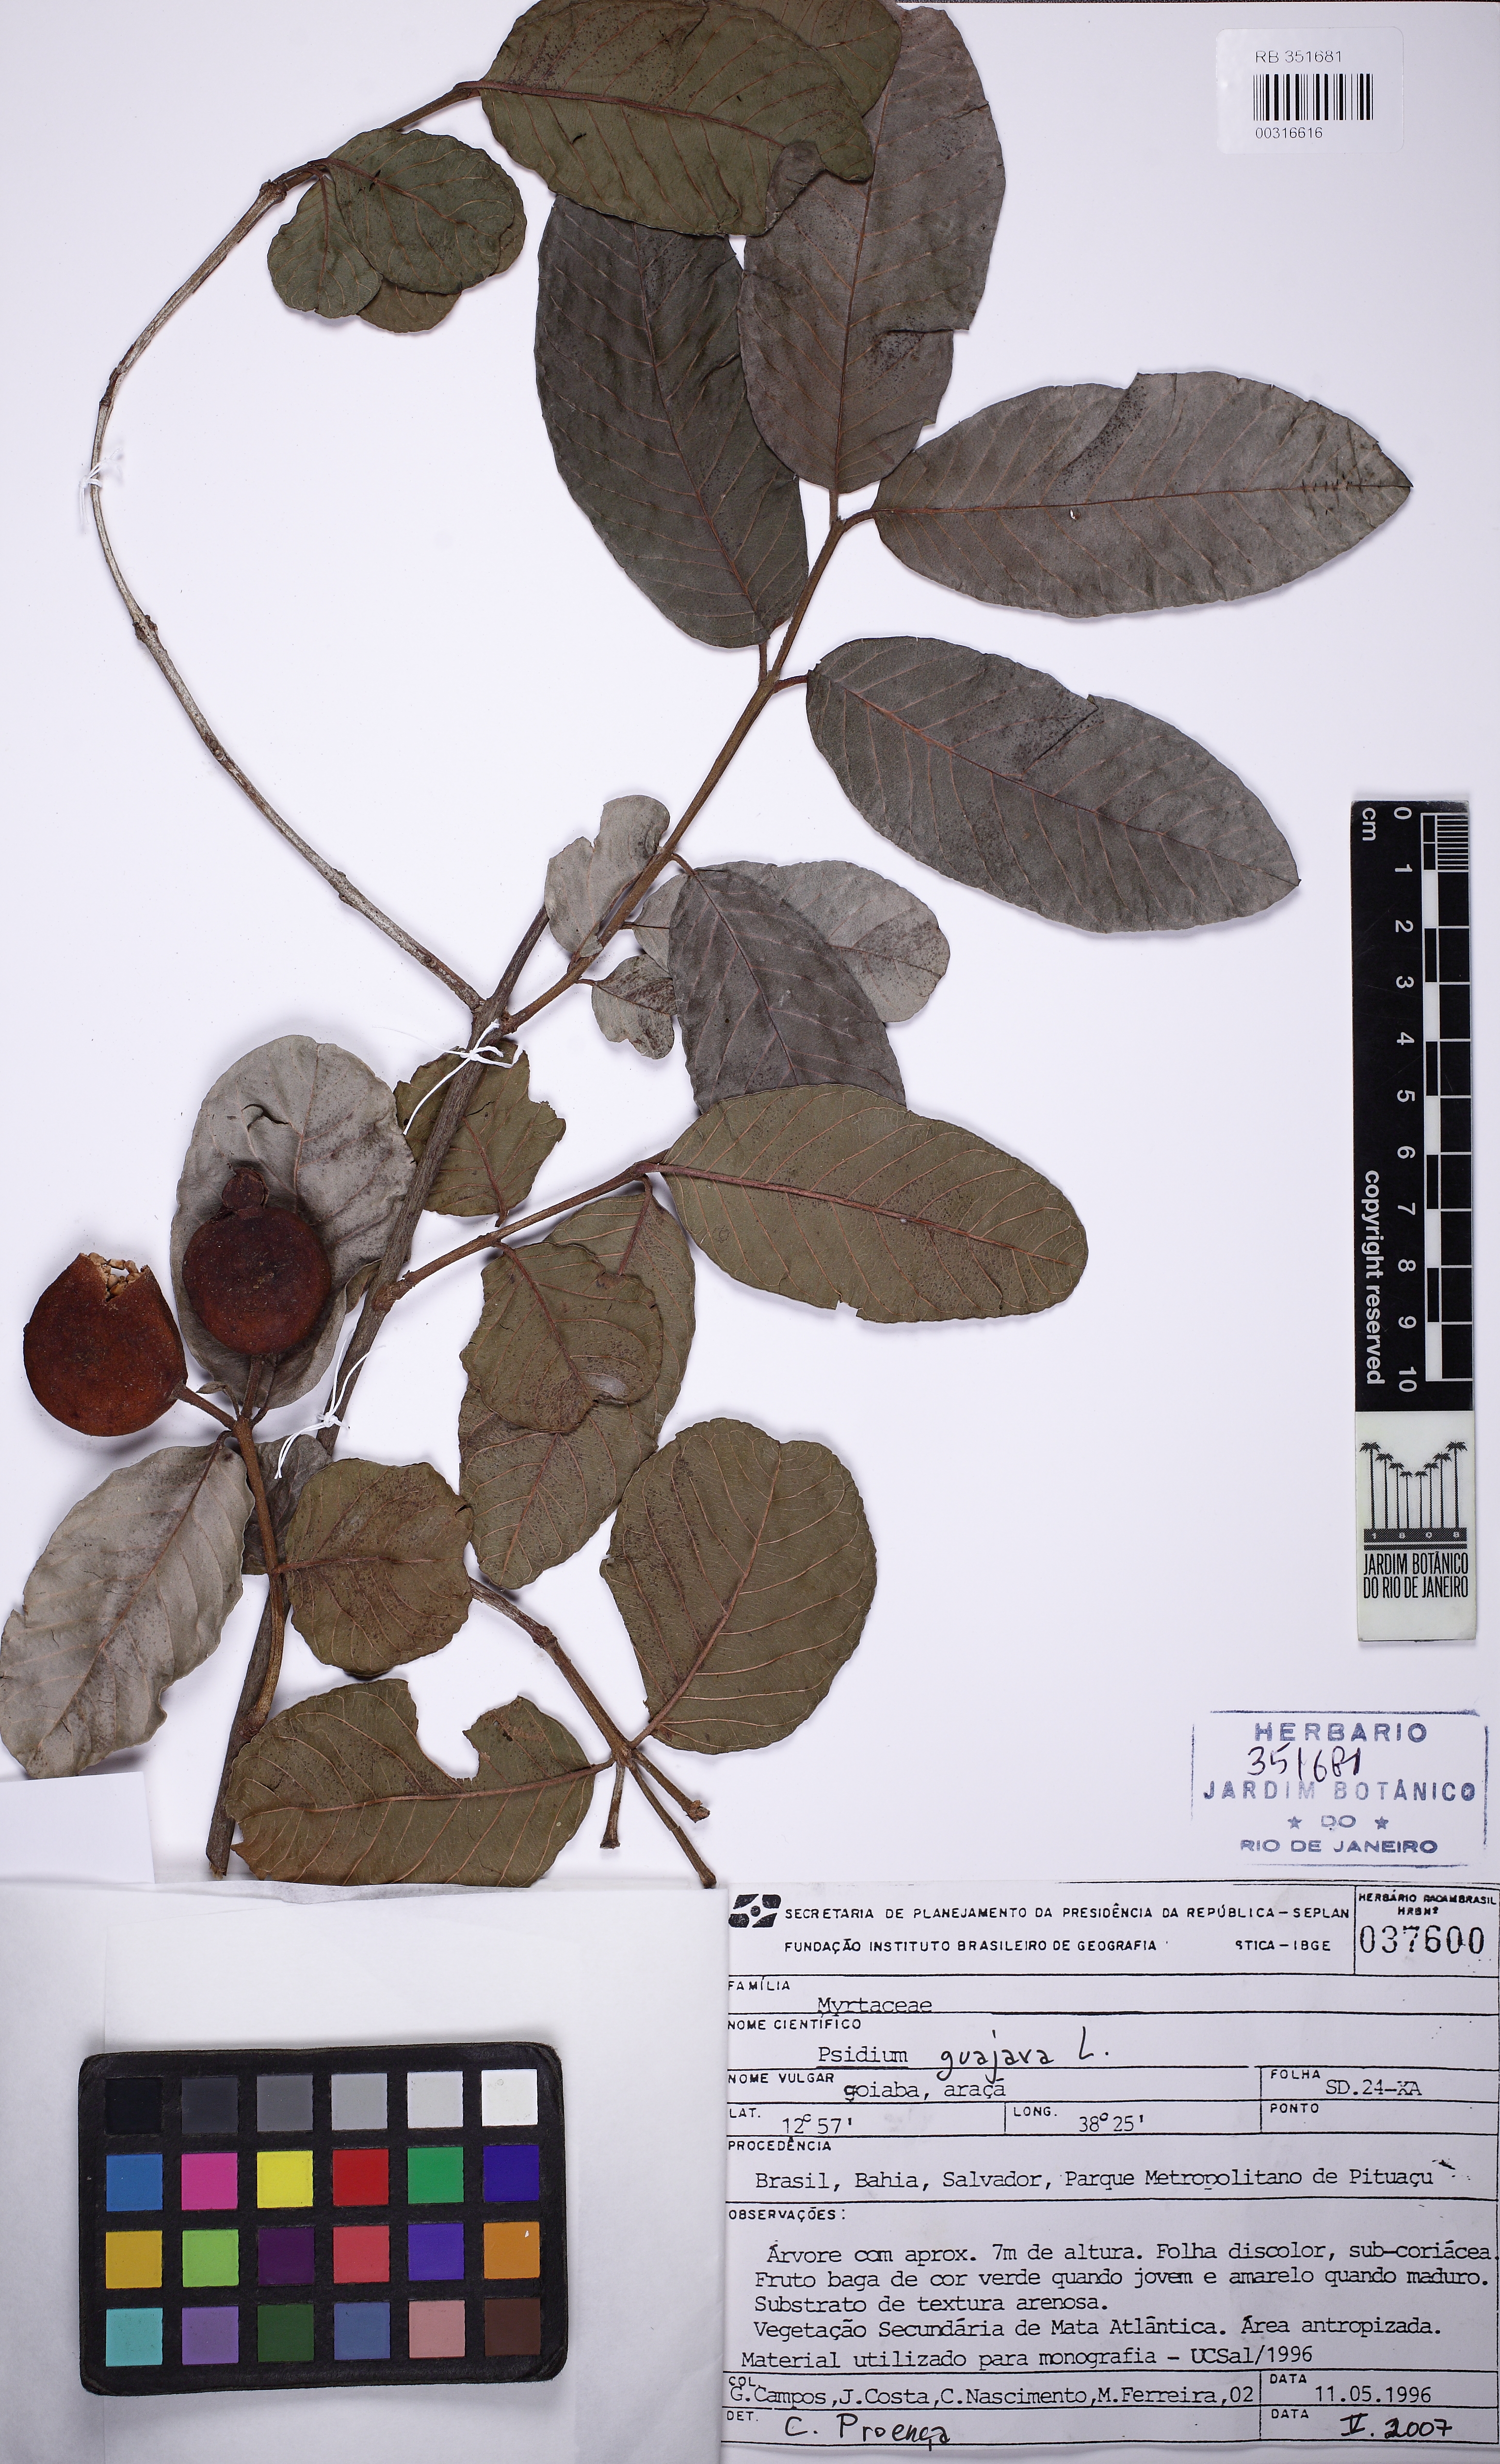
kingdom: Plantae
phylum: Tracheophyta
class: Magnoliopsida
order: Myrtales
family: Myrtaceae
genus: Psidium
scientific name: Psidium guajava
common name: Guava
